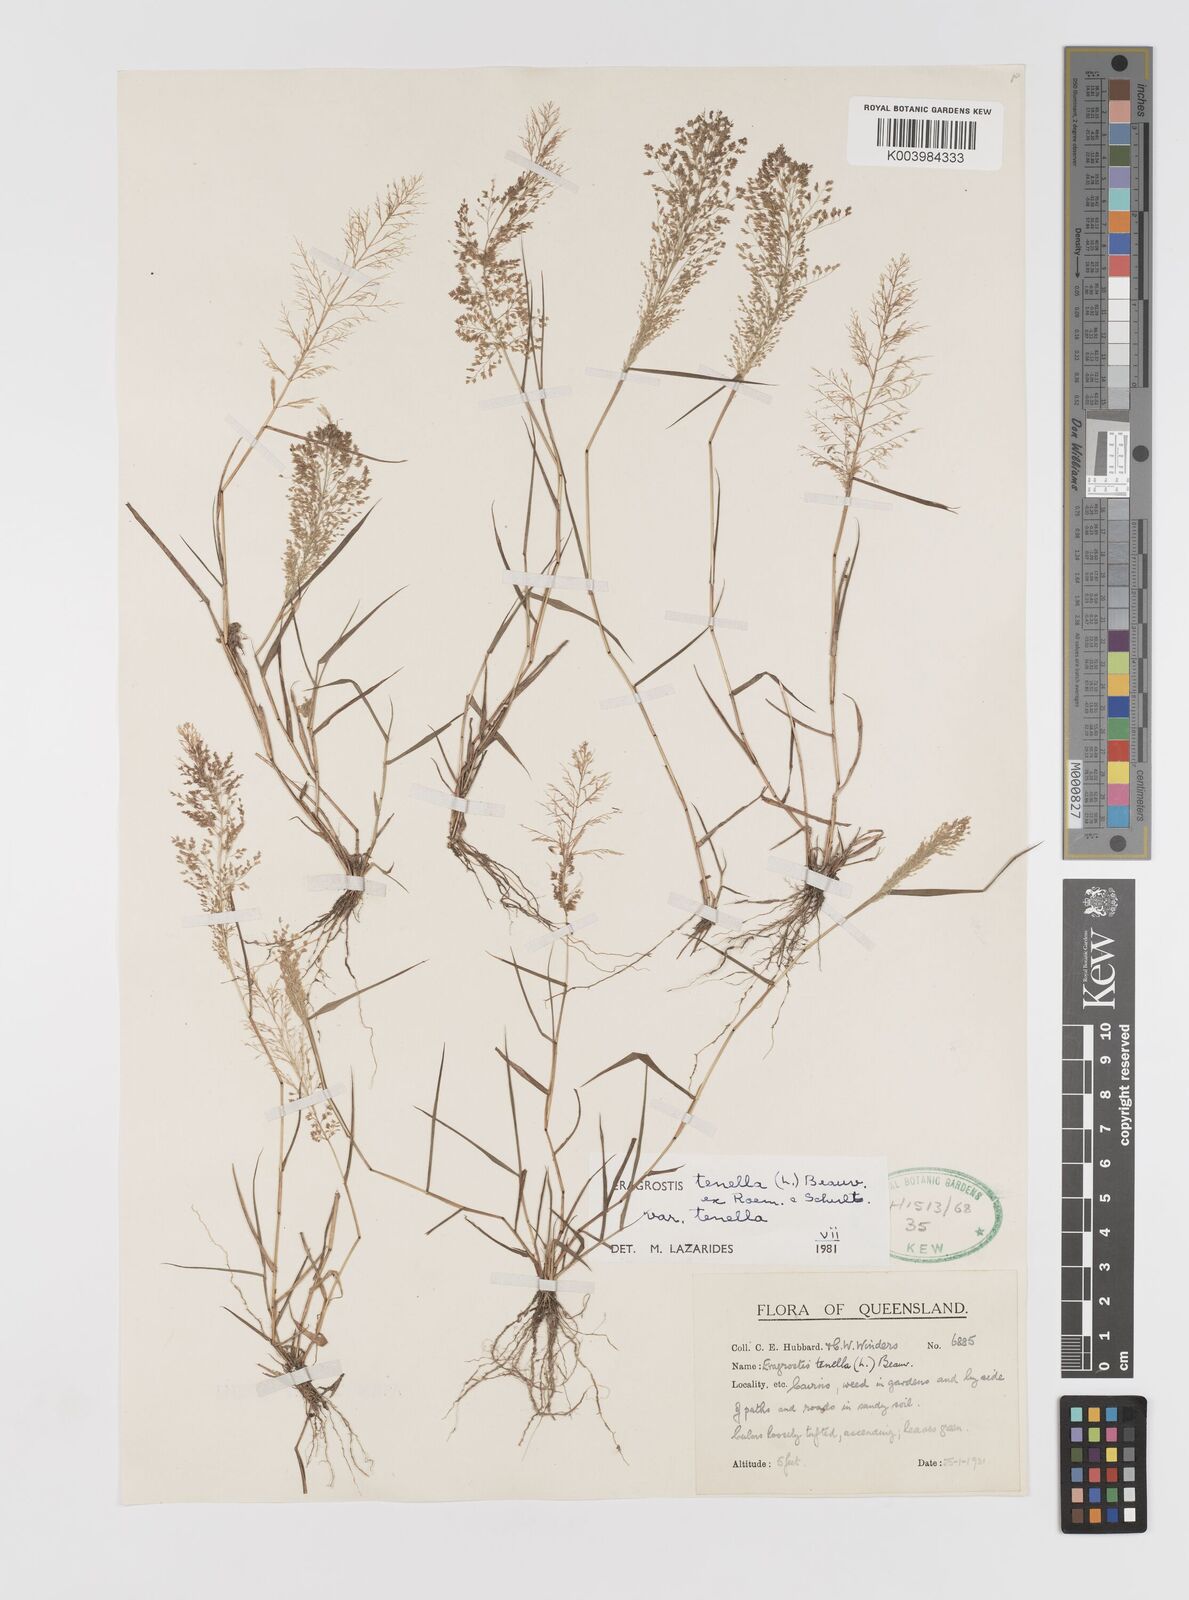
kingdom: Plantae
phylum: Tracheophyta
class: Liliopsida
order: Poales
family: Poaceae
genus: Eragrostis
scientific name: Eragrostis tenella
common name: Japanese lovegrass
